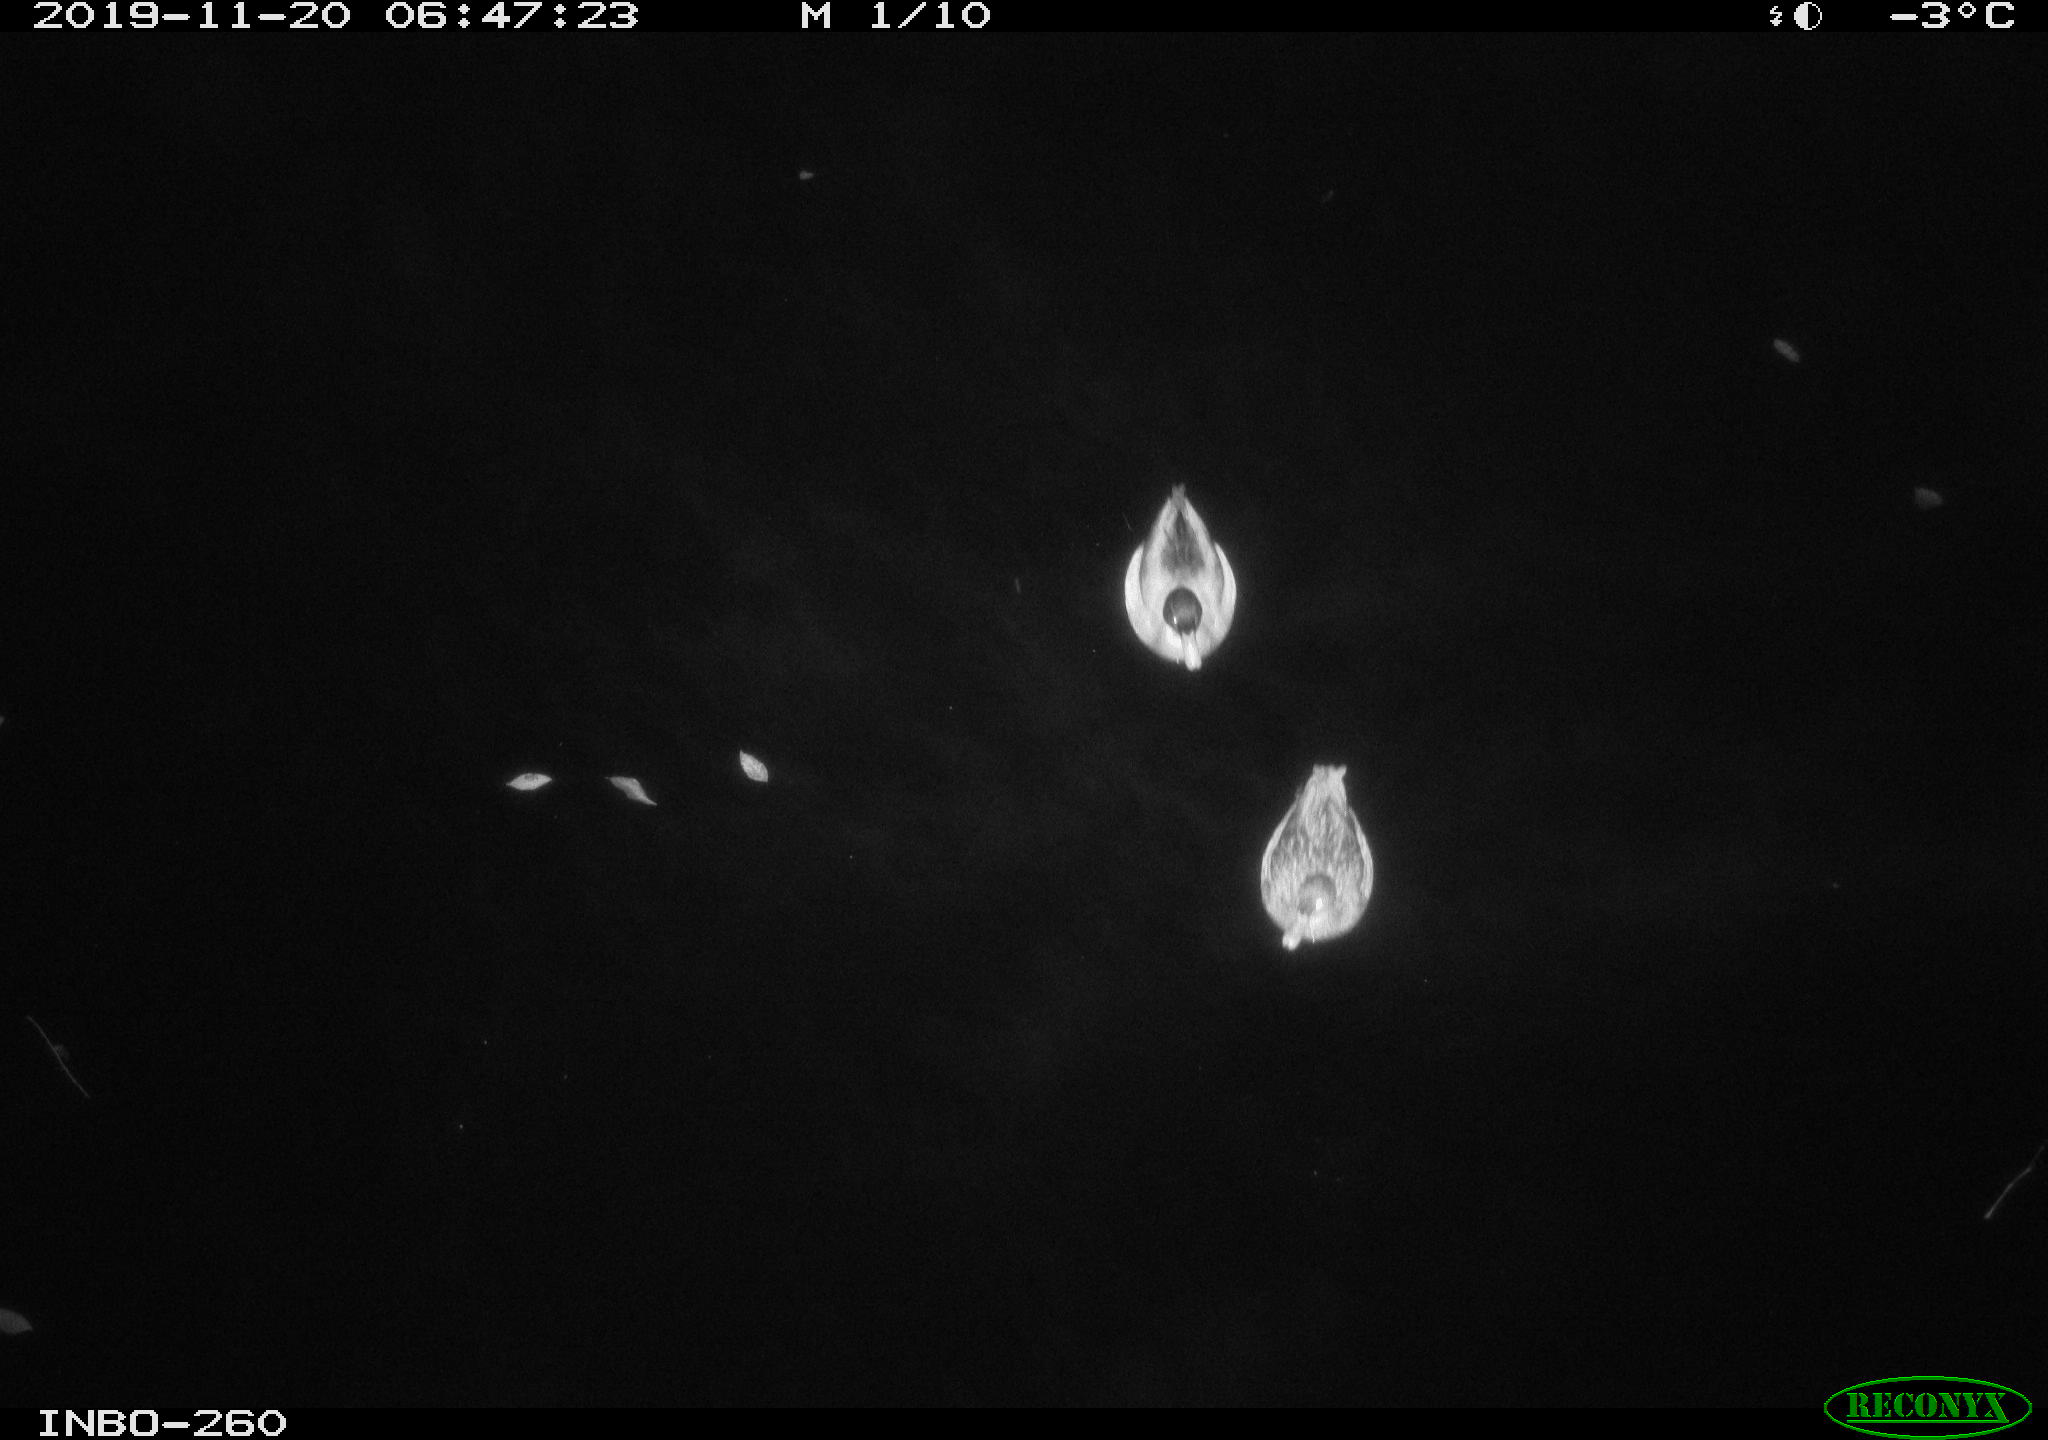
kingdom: Animalia
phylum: Chordata
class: Aves
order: Anseriformes
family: Anatidae
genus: Anas
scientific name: Anas platyrhynchos
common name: Mallard
